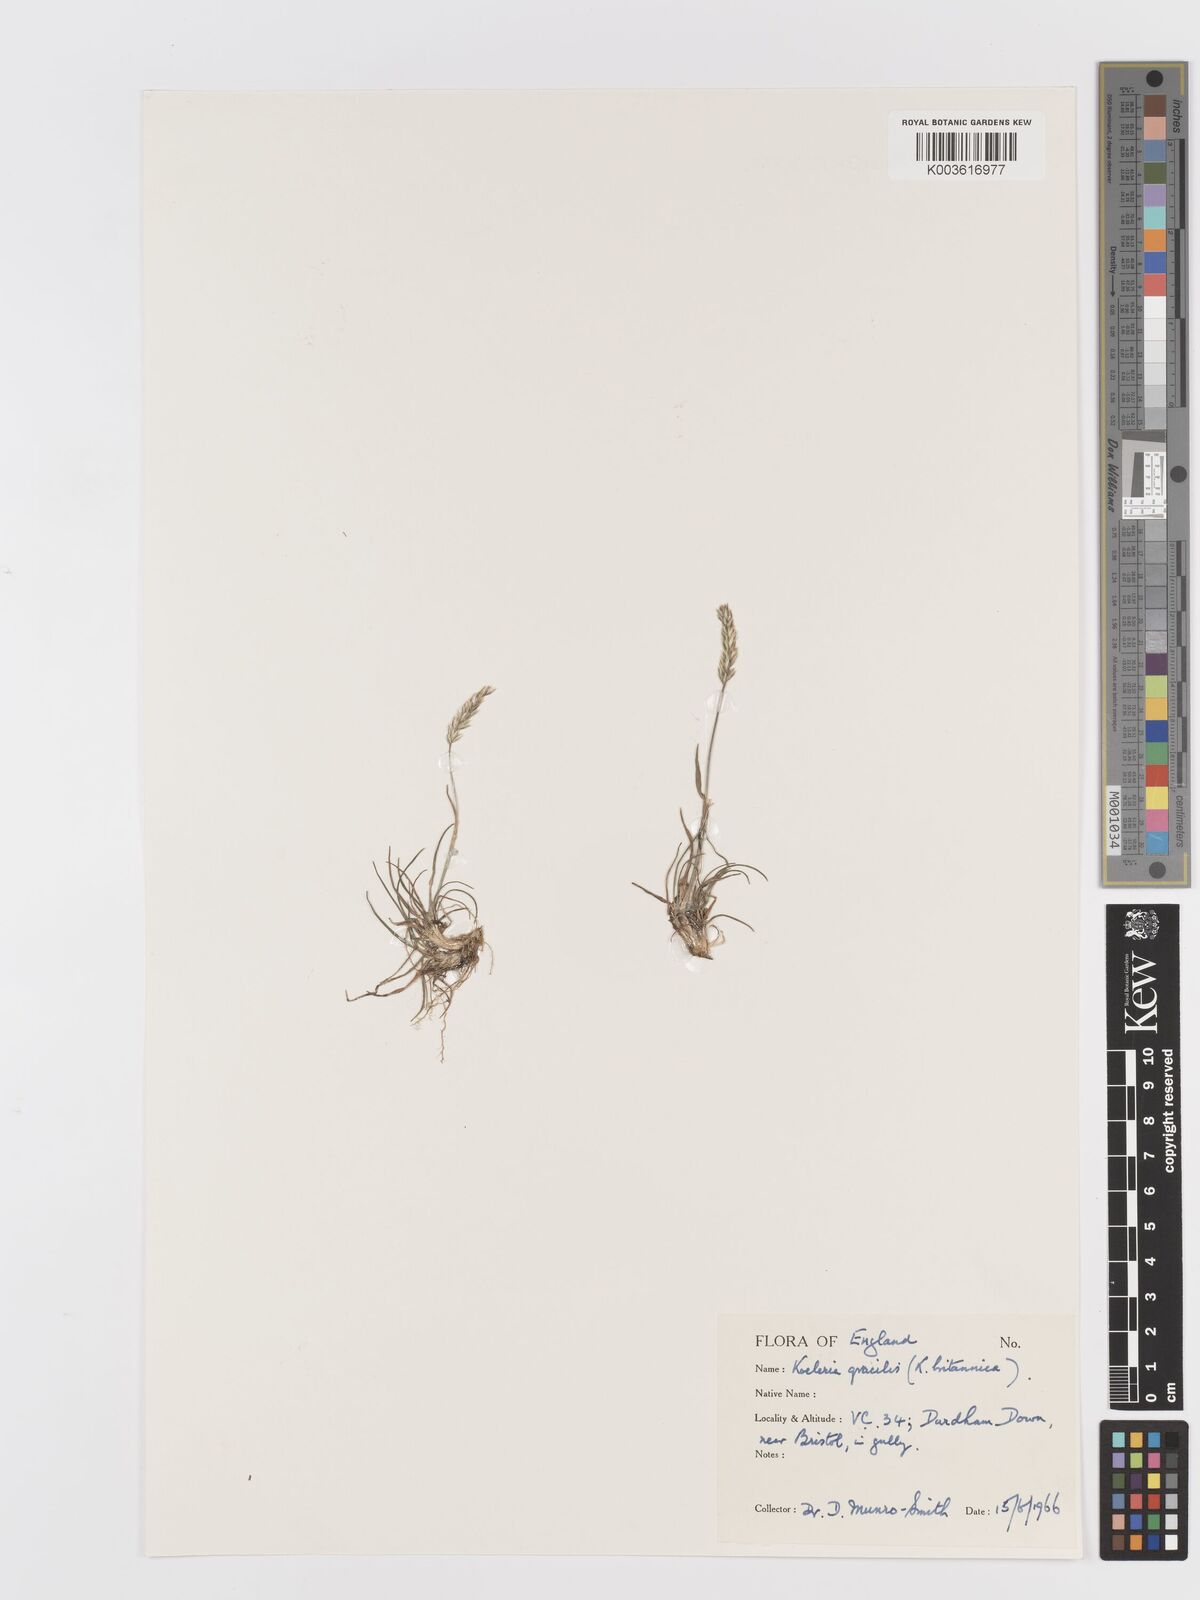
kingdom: Plantae
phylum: Tracheophyta
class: Liliopsida
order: Poales
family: Poaceae
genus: Koeleria
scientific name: Koeleria macrantha
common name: Crested hair-grass
